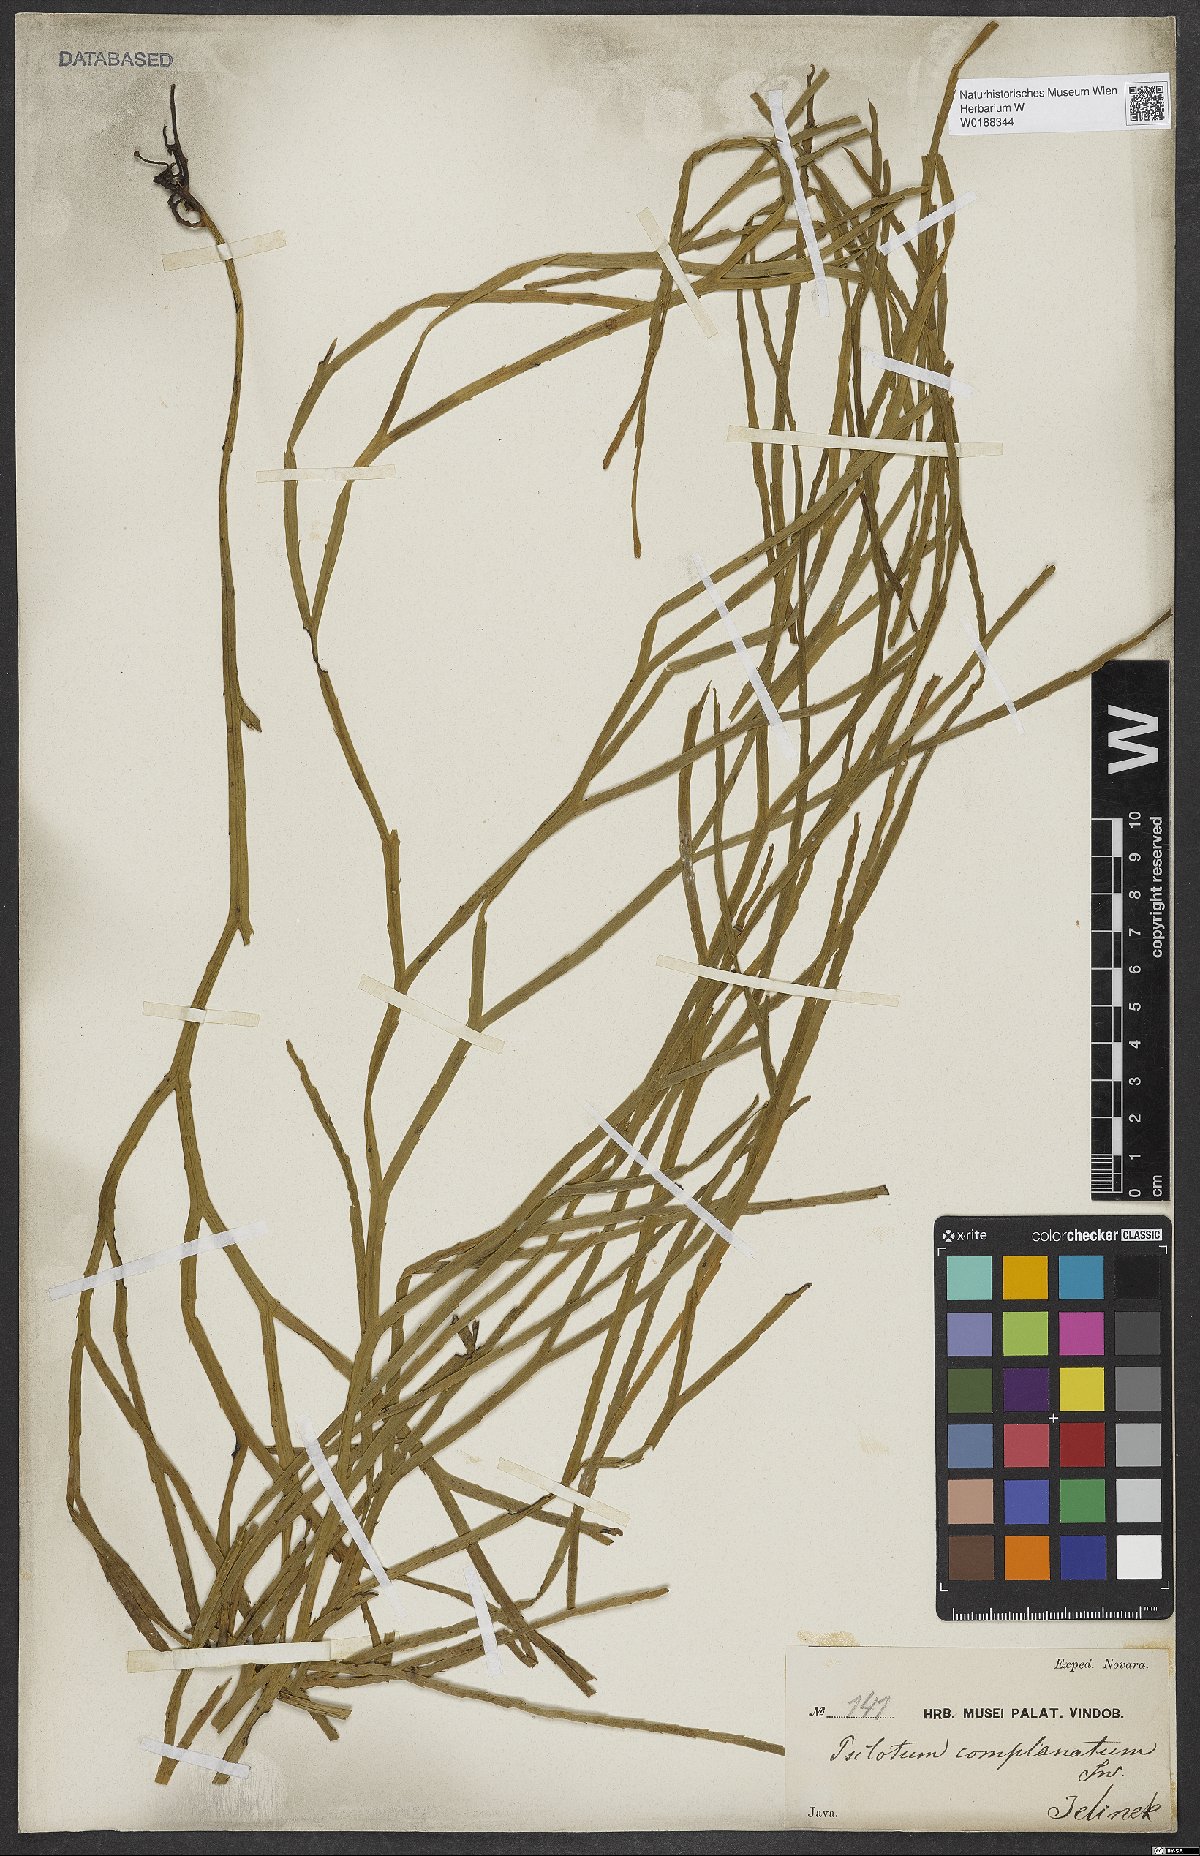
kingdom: Plantae
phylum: Tracheophyta
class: Polypodiopsida
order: Psilotales
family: Psilotaceae
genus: Psilotum
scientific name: Psilotum complanatum
